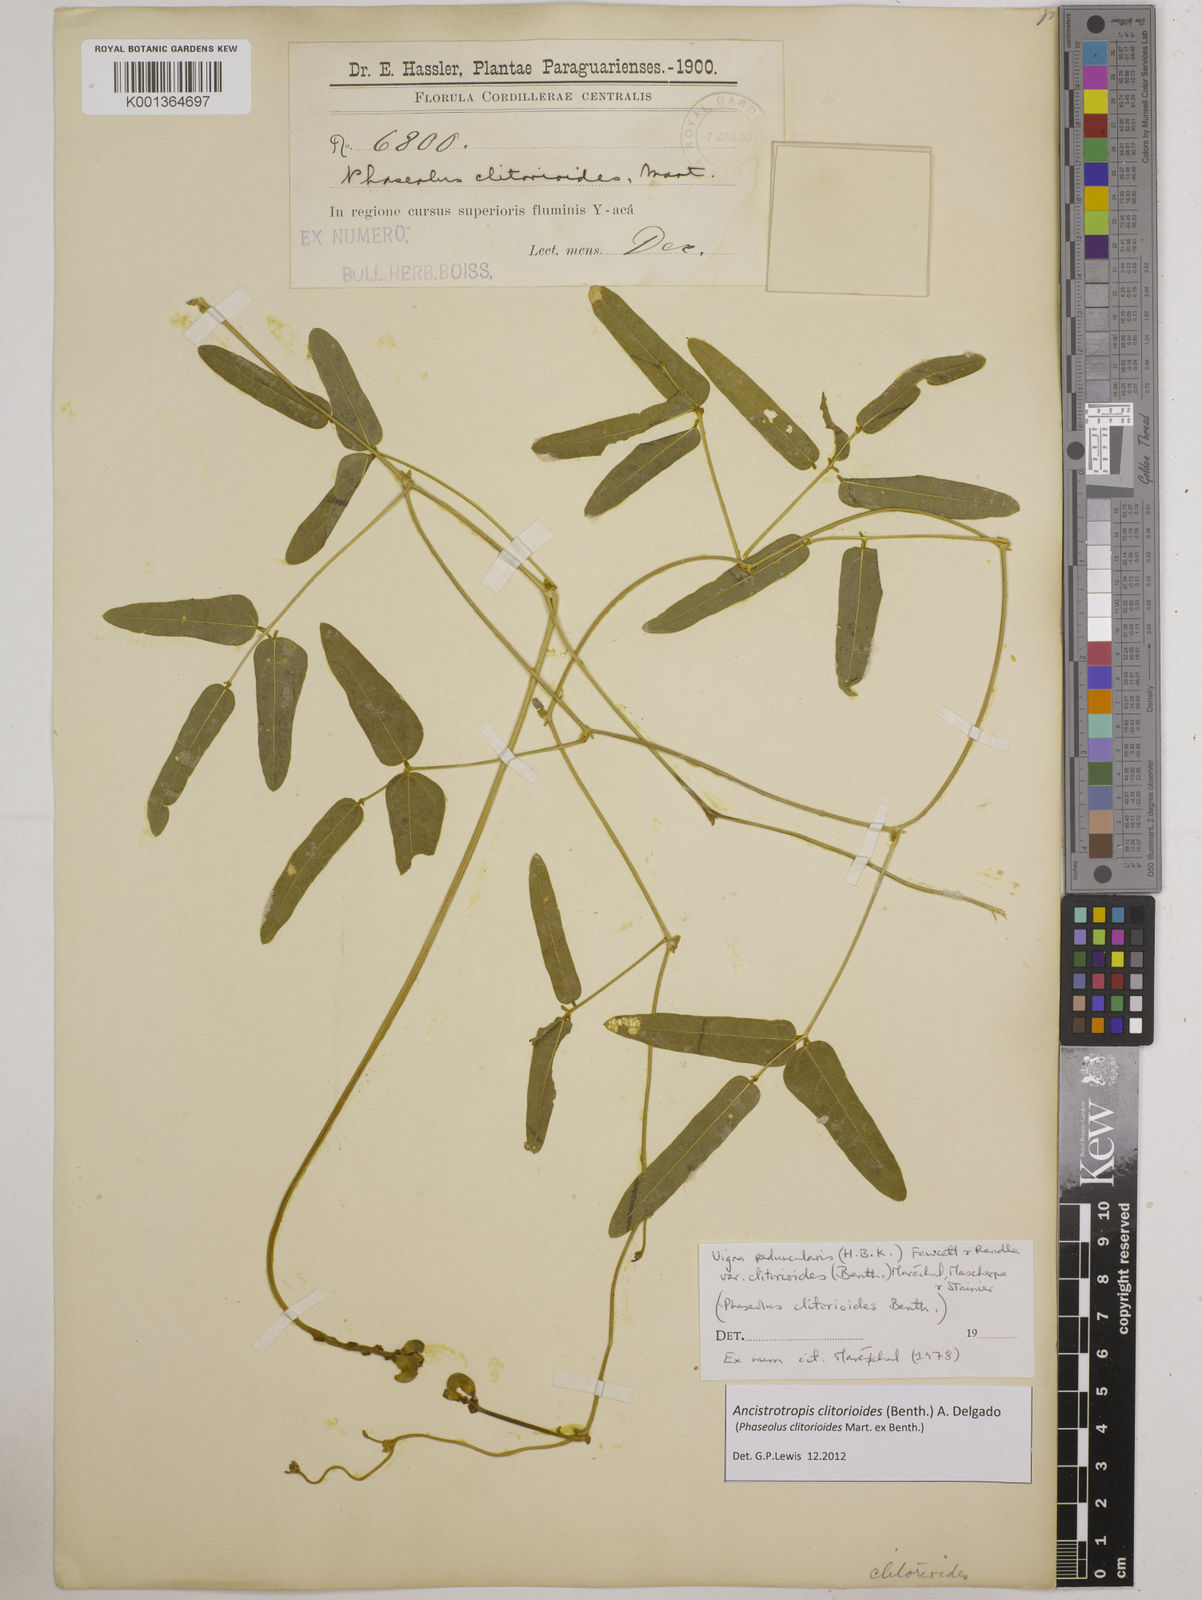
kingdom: Plantae
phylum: Tracheophyta
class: Magnoliopsida
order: Fabales
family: Fabaceae
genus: Ancistrotropis
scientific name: Ancistrotropis clitorioides
